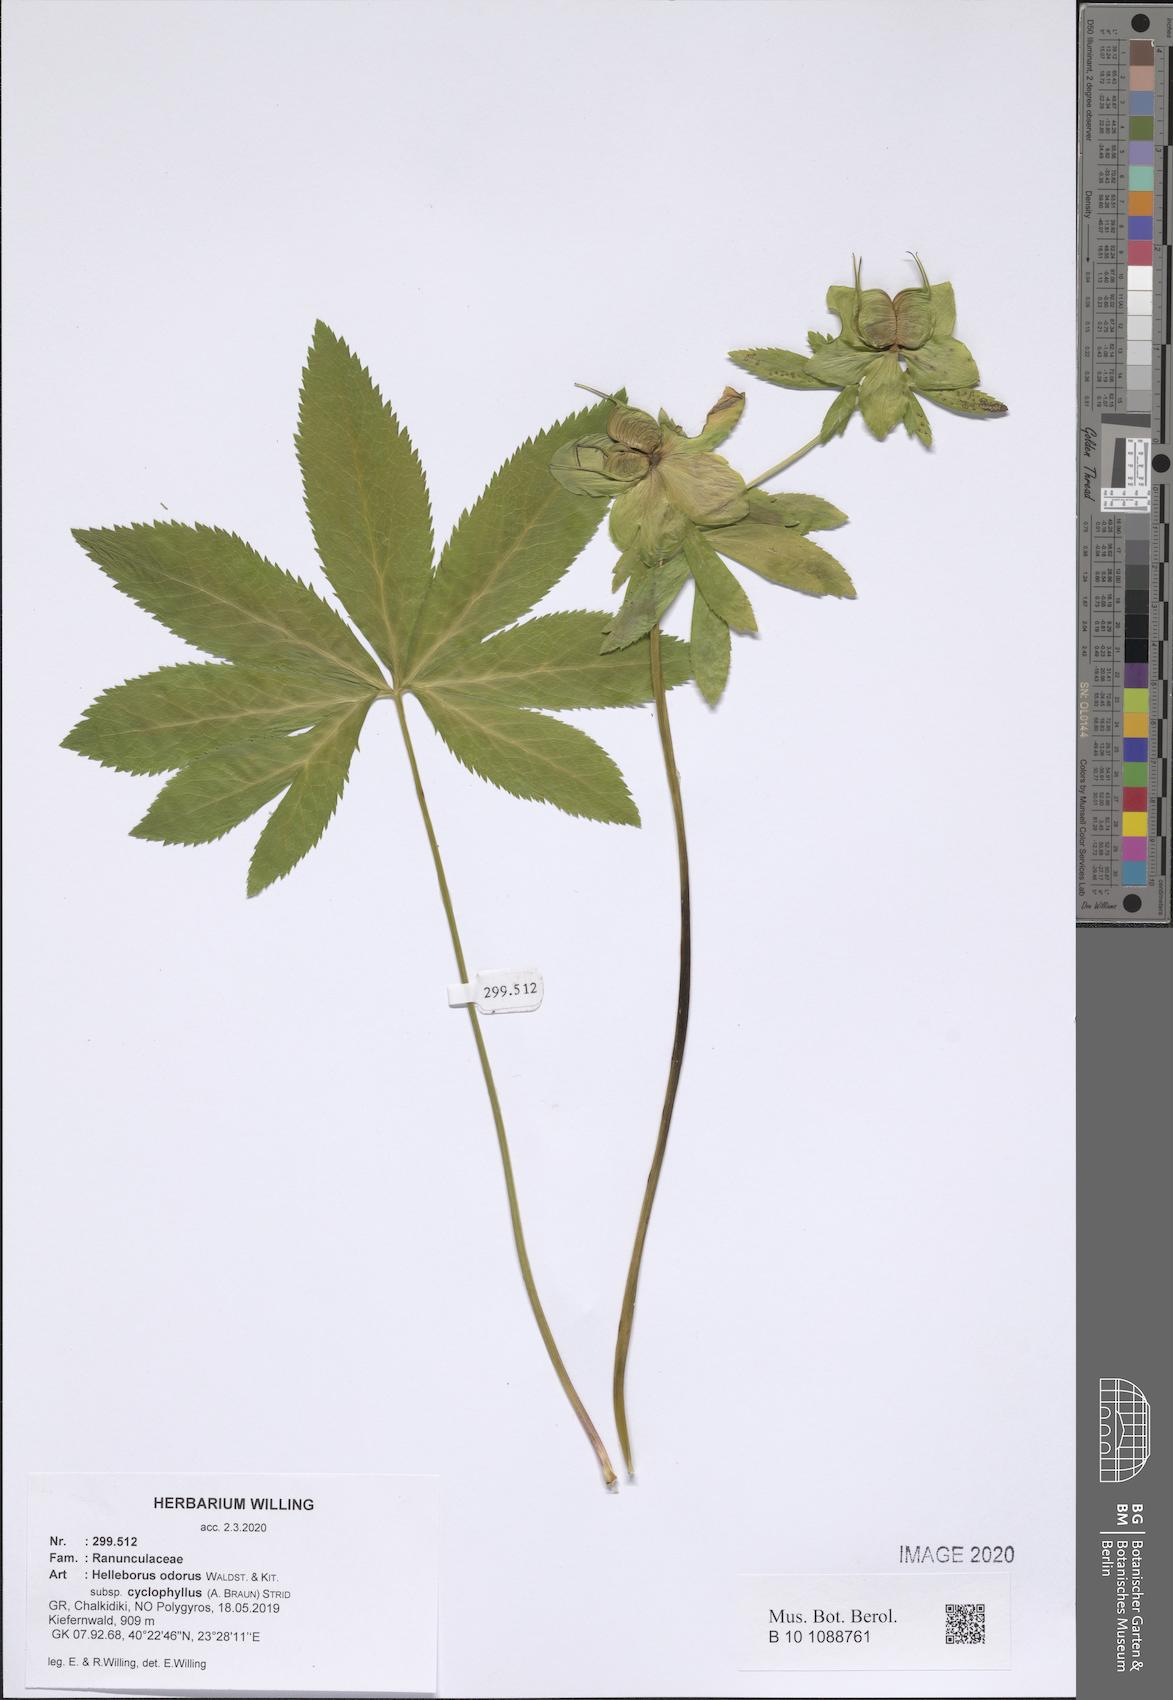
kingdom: Plantae
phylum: Tracheophyta
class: Magnoliopsida
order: Ranunculales
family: Ranunculaceae
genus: Helleborus
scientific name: Helleborus odorus
